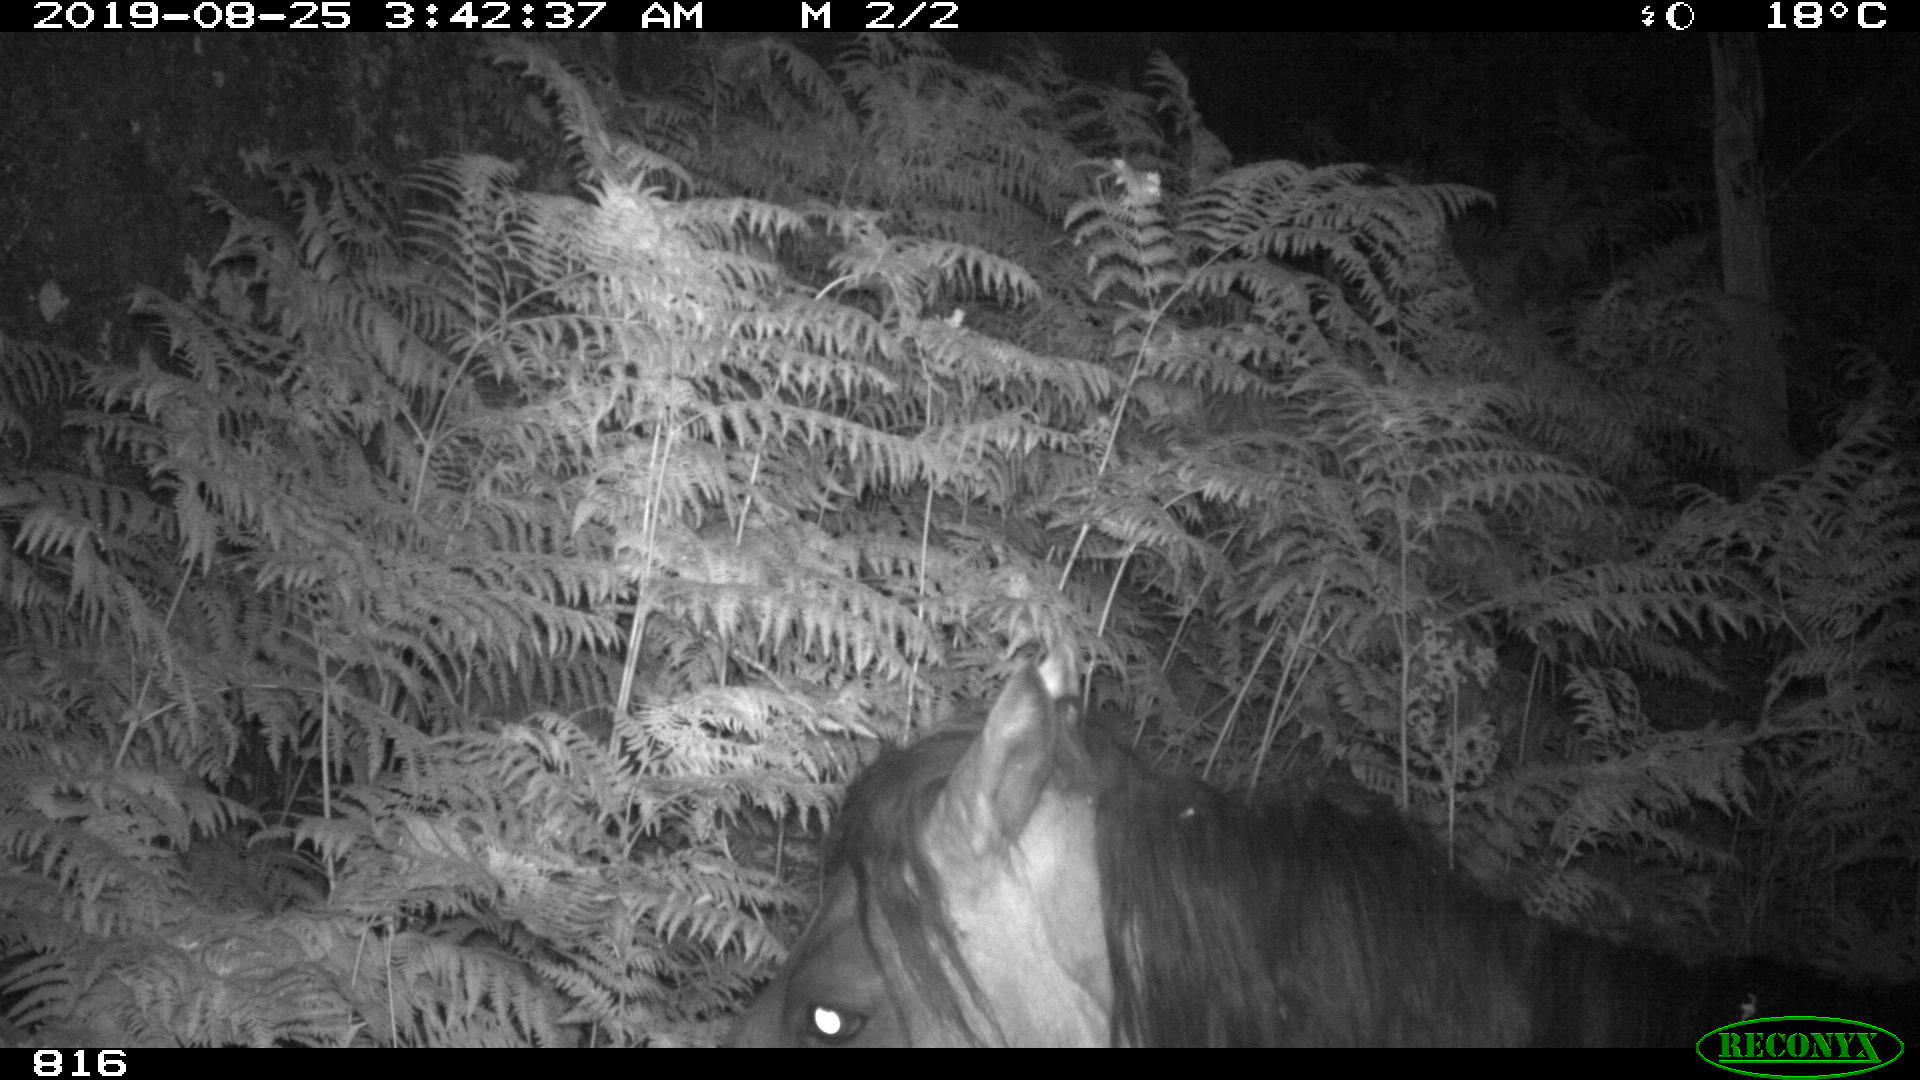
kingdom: Animalia
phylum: Chordata
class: Mammalia
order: Perissodactyla
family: Equidae
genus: Equus
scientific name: Equus caballus
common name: Horse
